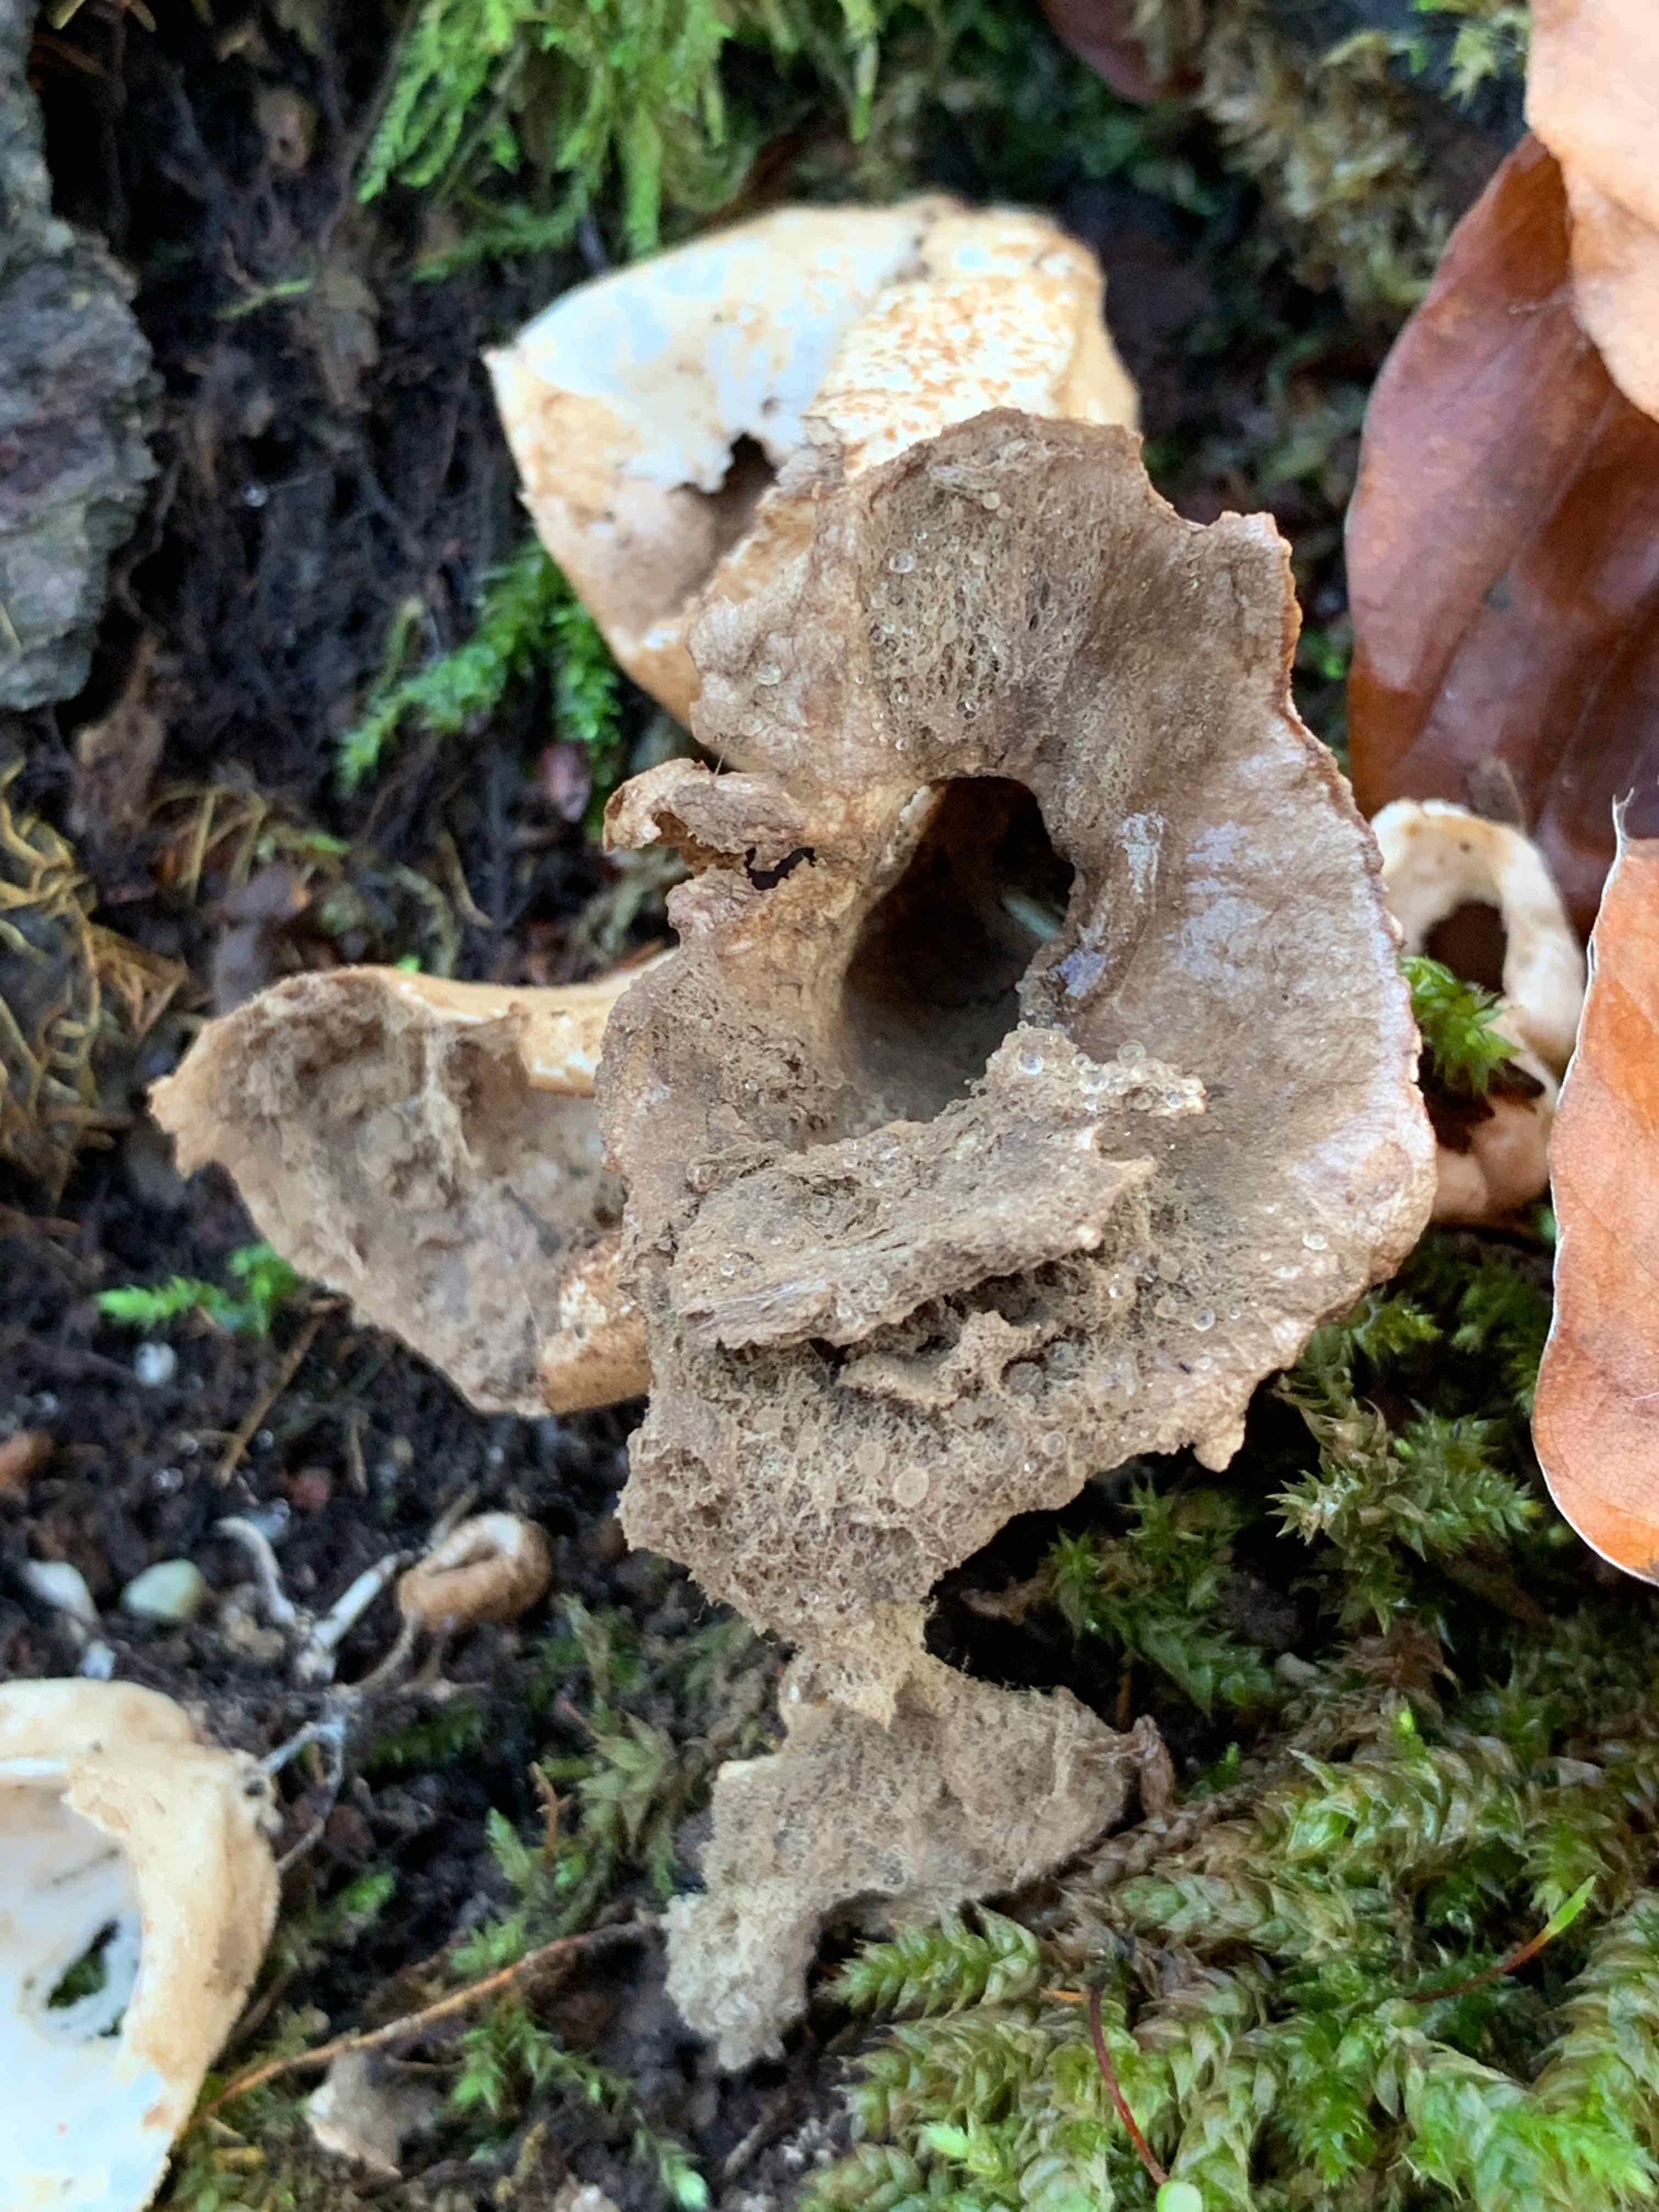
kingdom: Fungi
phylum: Basidiomycota
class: Agaricomycetes
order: Agaricales
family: Lycoperdaceae
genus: Apioperdon
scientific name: Apioperdon pyriforme
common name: pære-støvbold
